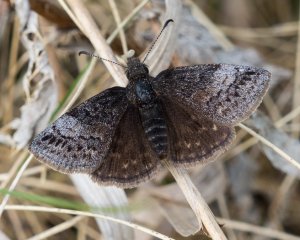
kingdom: Animalia
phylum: Arthropoda
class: Insecta
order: Lepidoptera
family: Hesperiidae
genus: Erynnis
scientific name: Erynnis icelus
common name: Dreamy Duskywing
